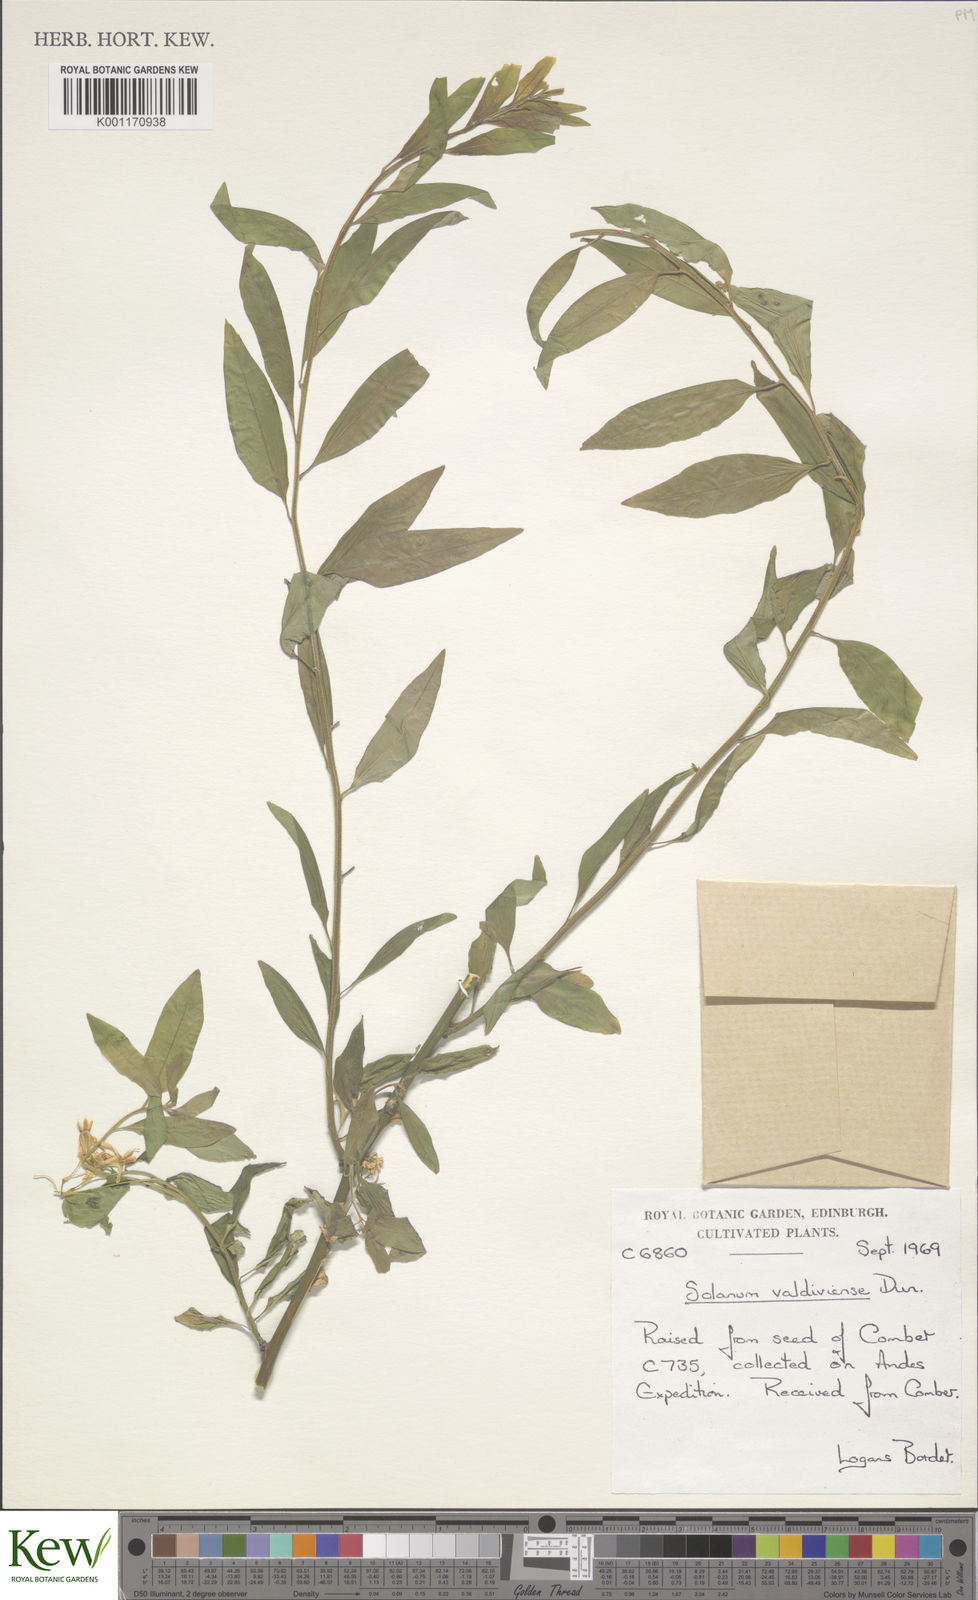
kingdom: Plantae
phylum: Tracheophyta
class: Magnoliopsida
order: Solanales
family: Solanaceae
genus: Solanum
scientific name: Solanum valdiviense
